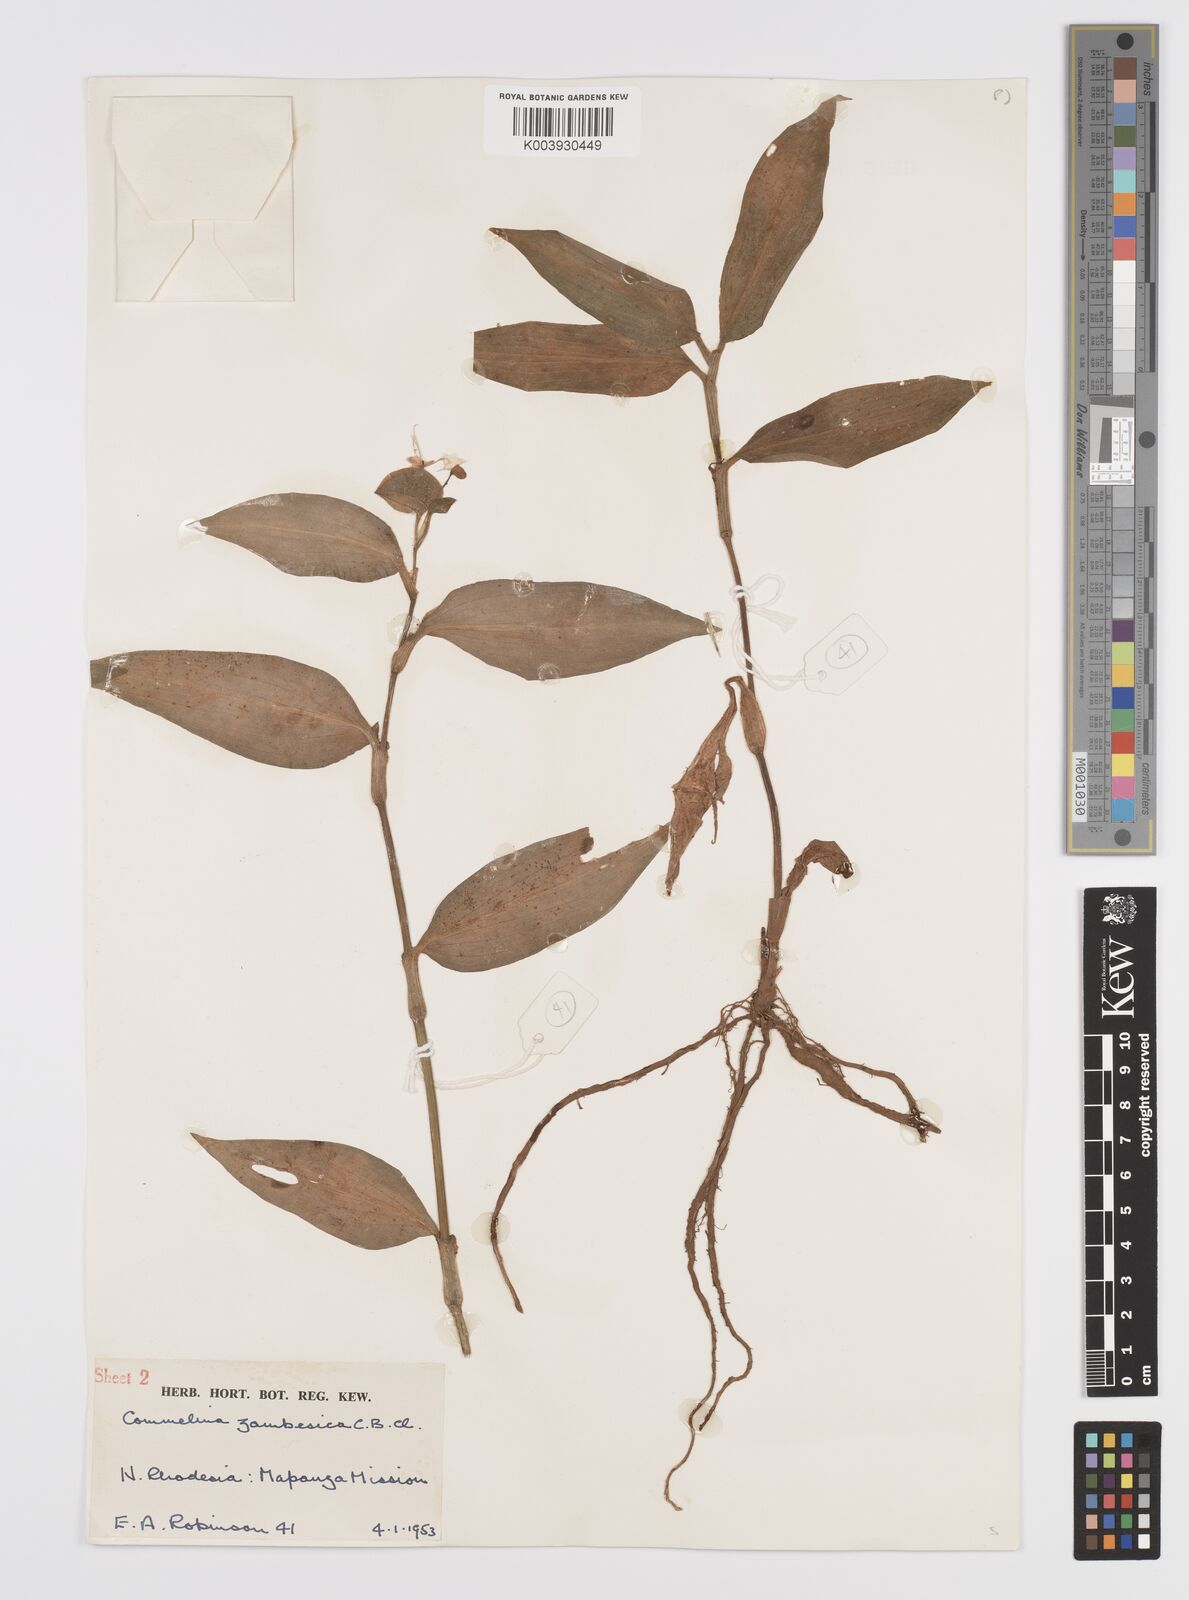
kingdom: Plantae
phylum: Tracheophyta
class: Liliopsida
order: Commelinales
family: Commelinaceae
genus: Commelina
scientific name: Commelina zambesica
